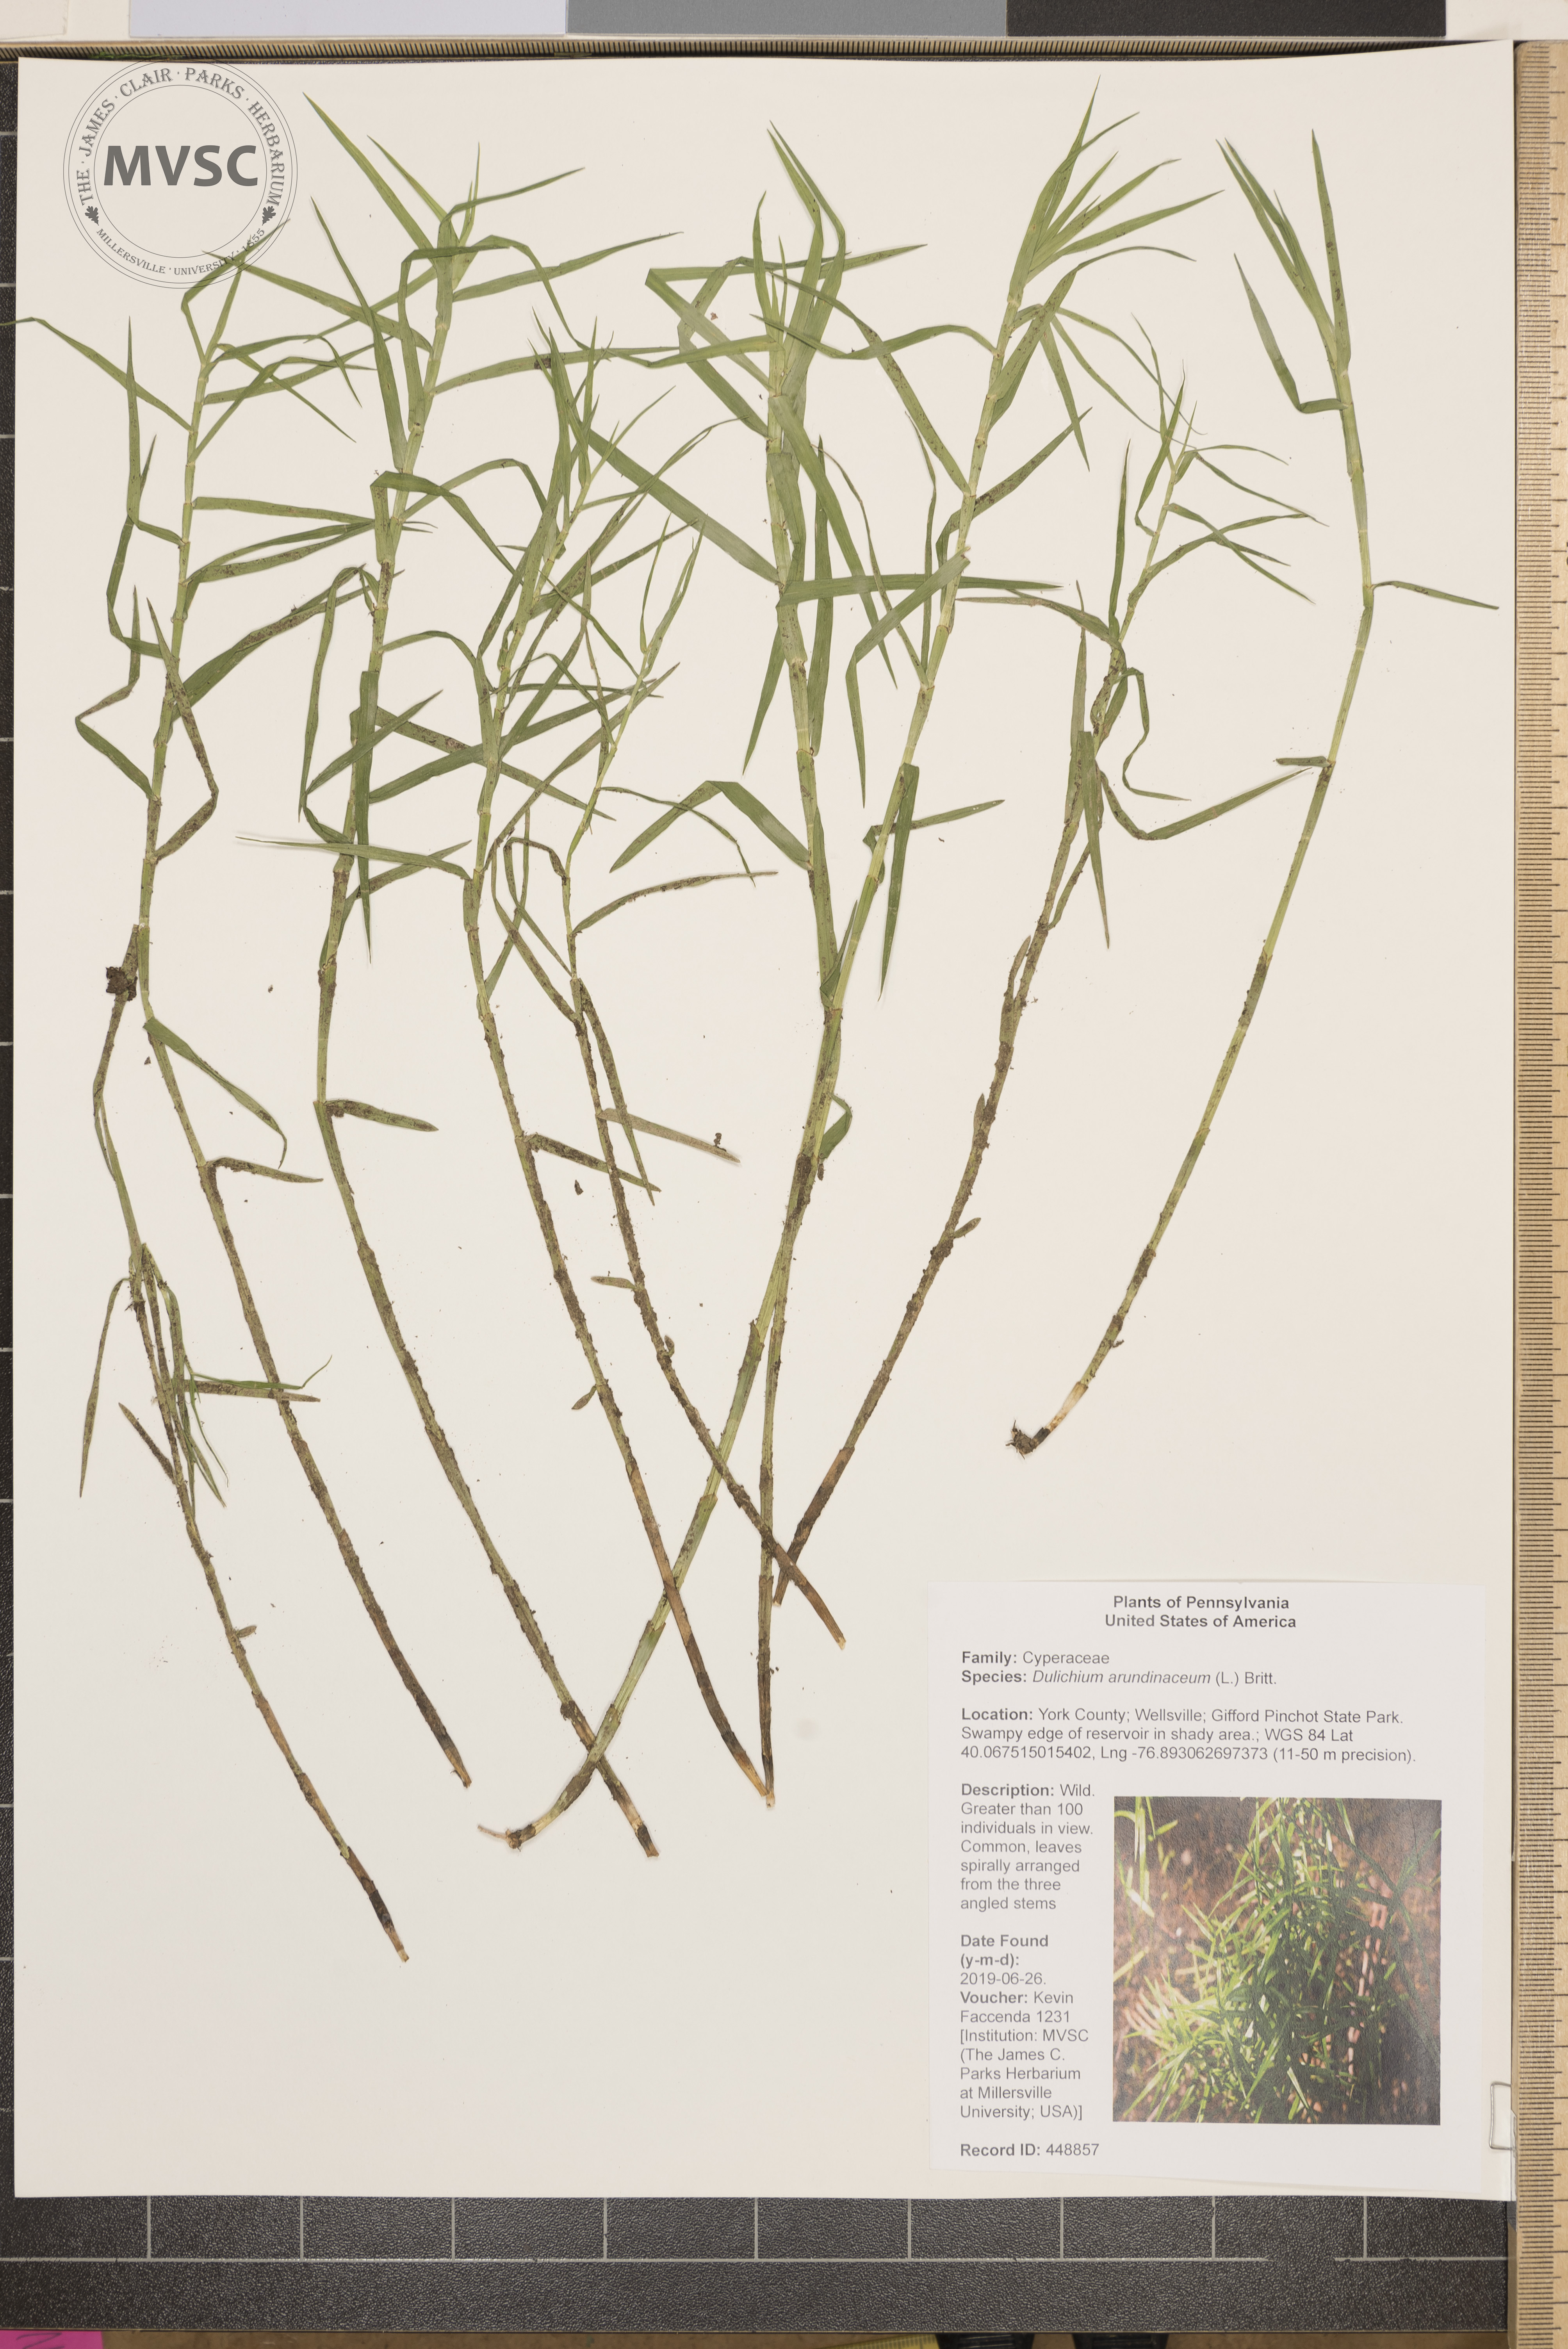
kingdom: Plantae
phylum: Tracheophyta
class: Liliopsida
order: Poales
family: Cyperaceae
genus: Dulichium
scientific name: Dulichium arundinaceum
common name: Three-way sedge
